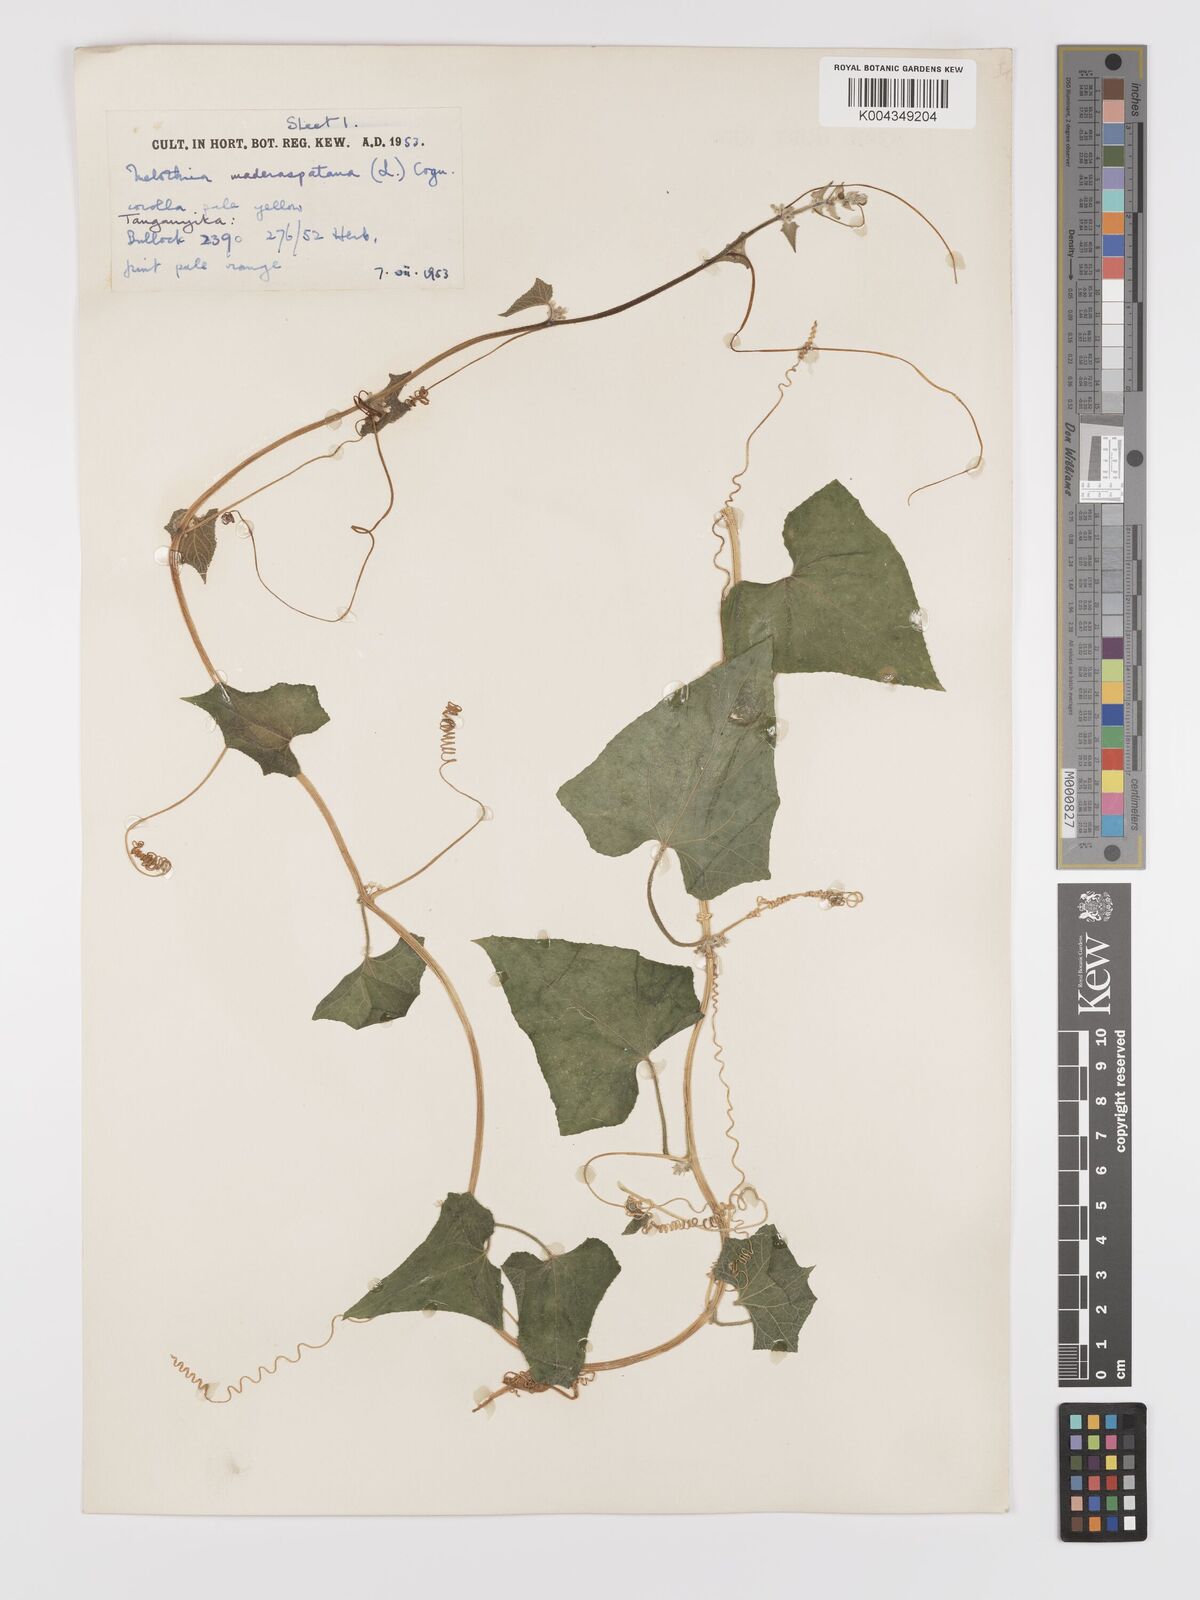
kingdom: Plantae
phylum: Tracheophyta
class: Magnoliopsida
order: Cucurbitales
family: Cucurbitaceae
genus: Cucumis
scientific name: Cucumis maderaspatanus
